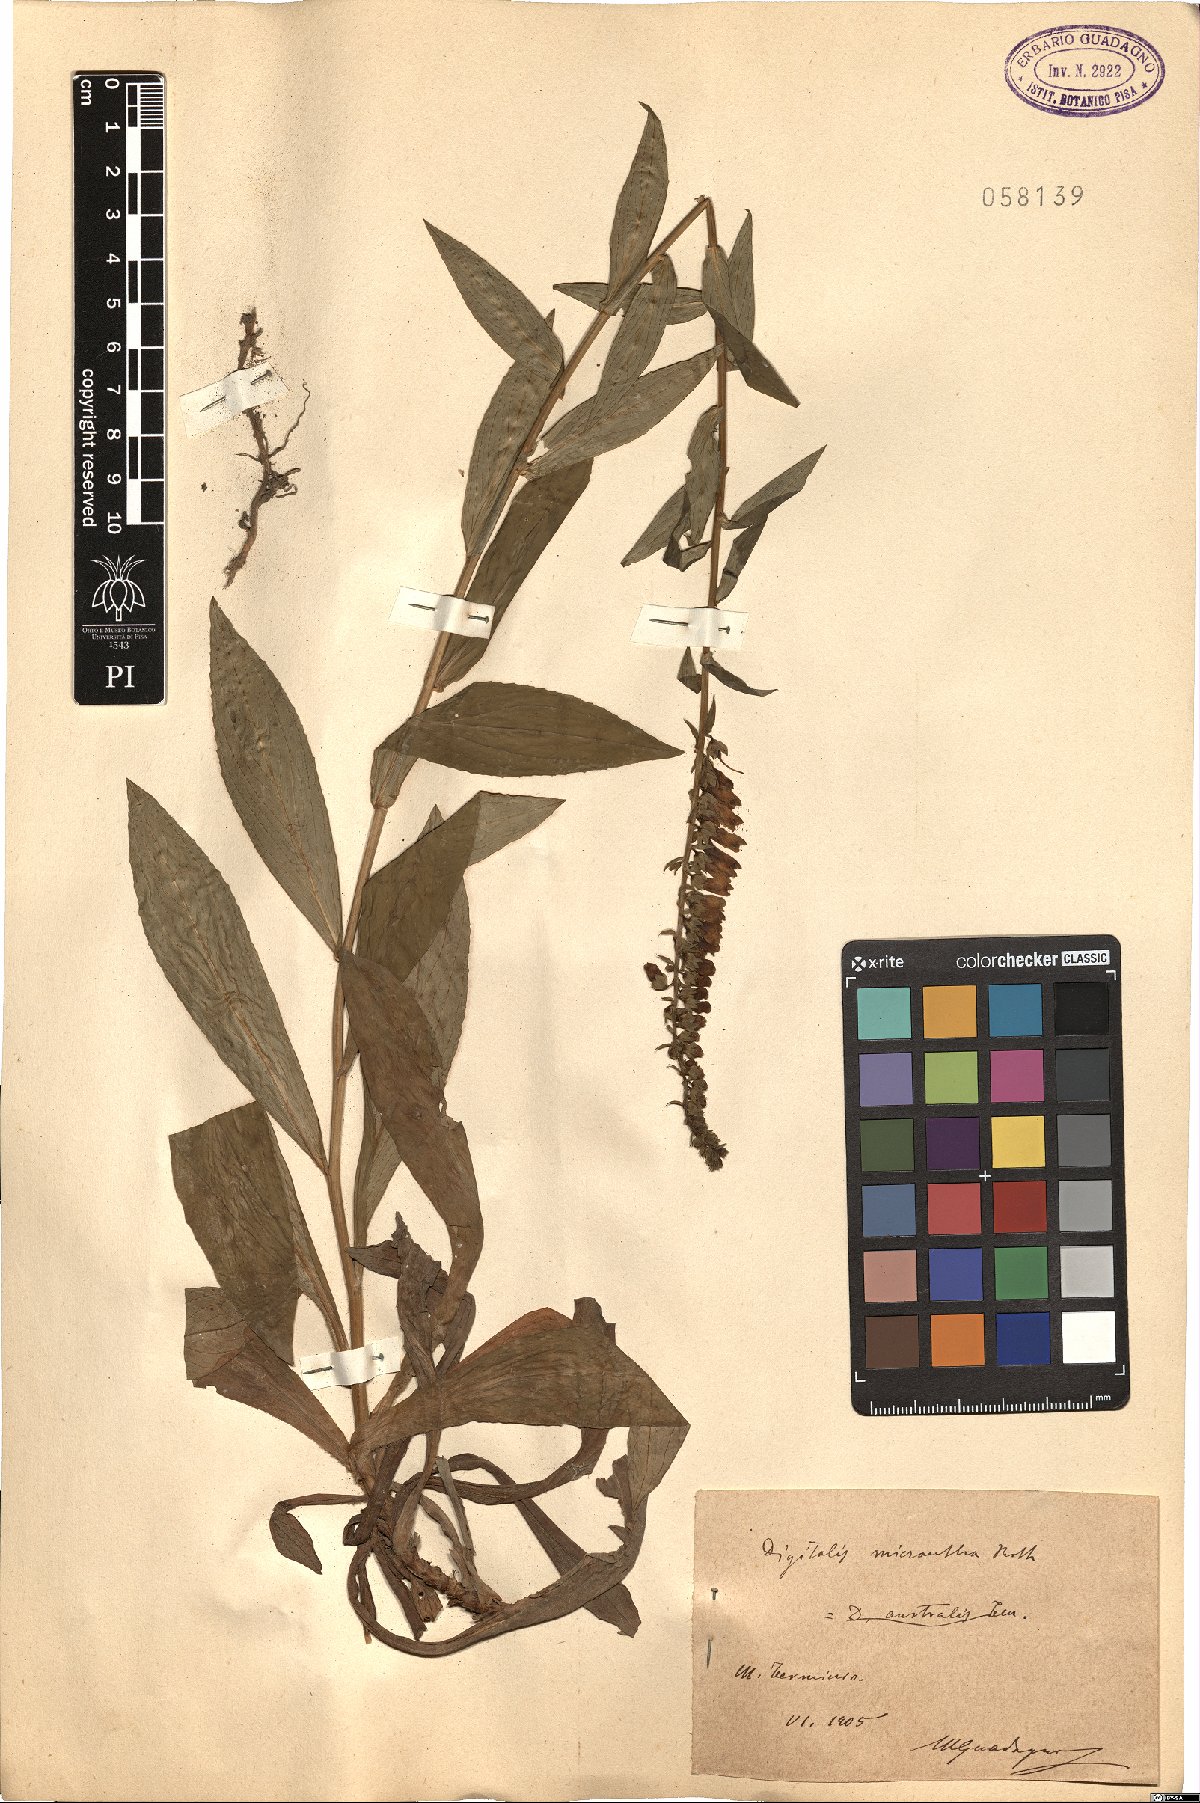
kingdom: Plantae
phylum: Tracheophyta
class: Magnoliopsida
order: Lamiales
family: Plantaginaceae
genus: Digitalis
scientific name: Digitalis lutea
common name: Straw foxglove
